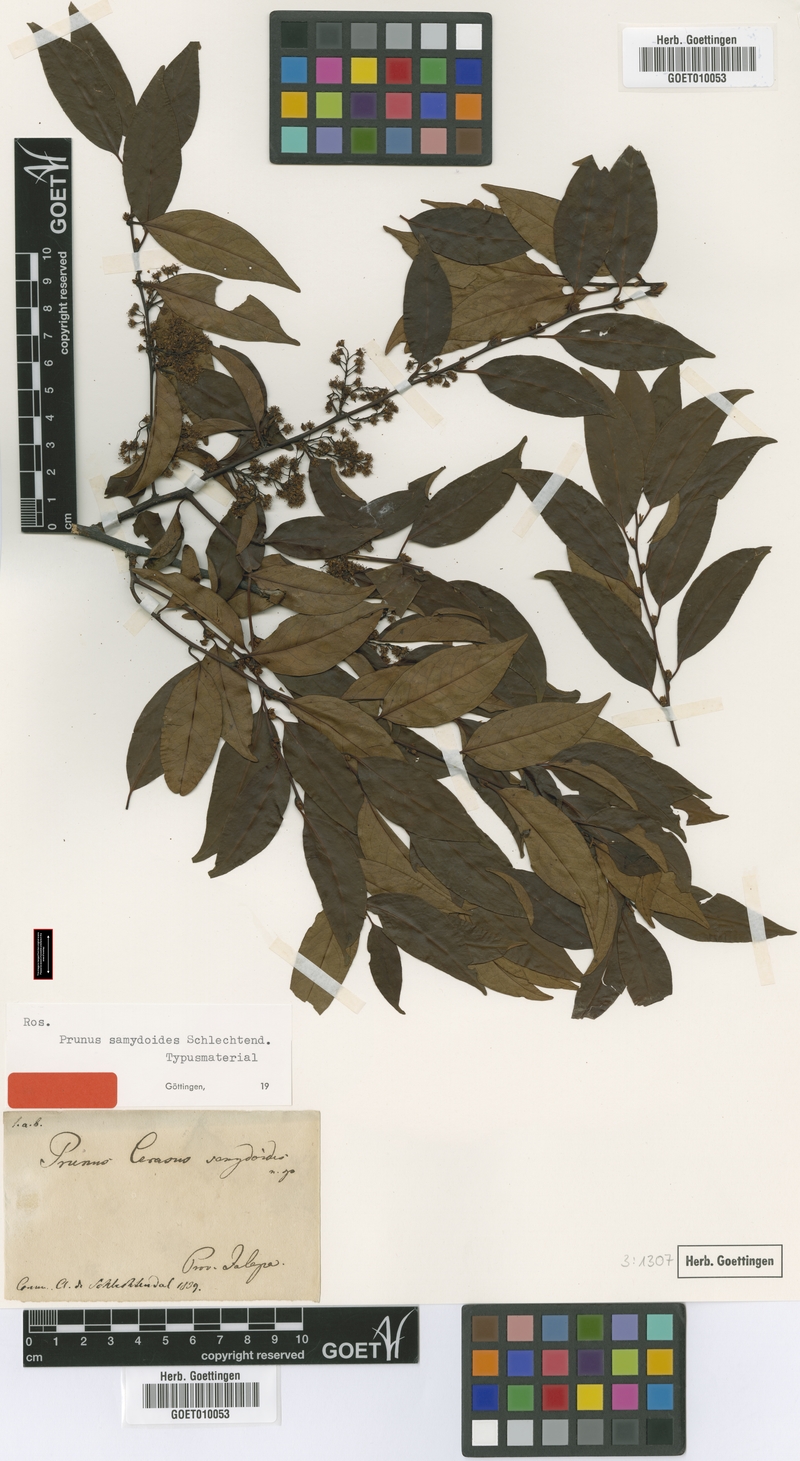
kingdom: Plantae
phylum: Tracheophyta
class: Magnoliopsida
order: Rosales
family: Rosaceae
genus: Prunus
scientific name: Prunus samydoides
